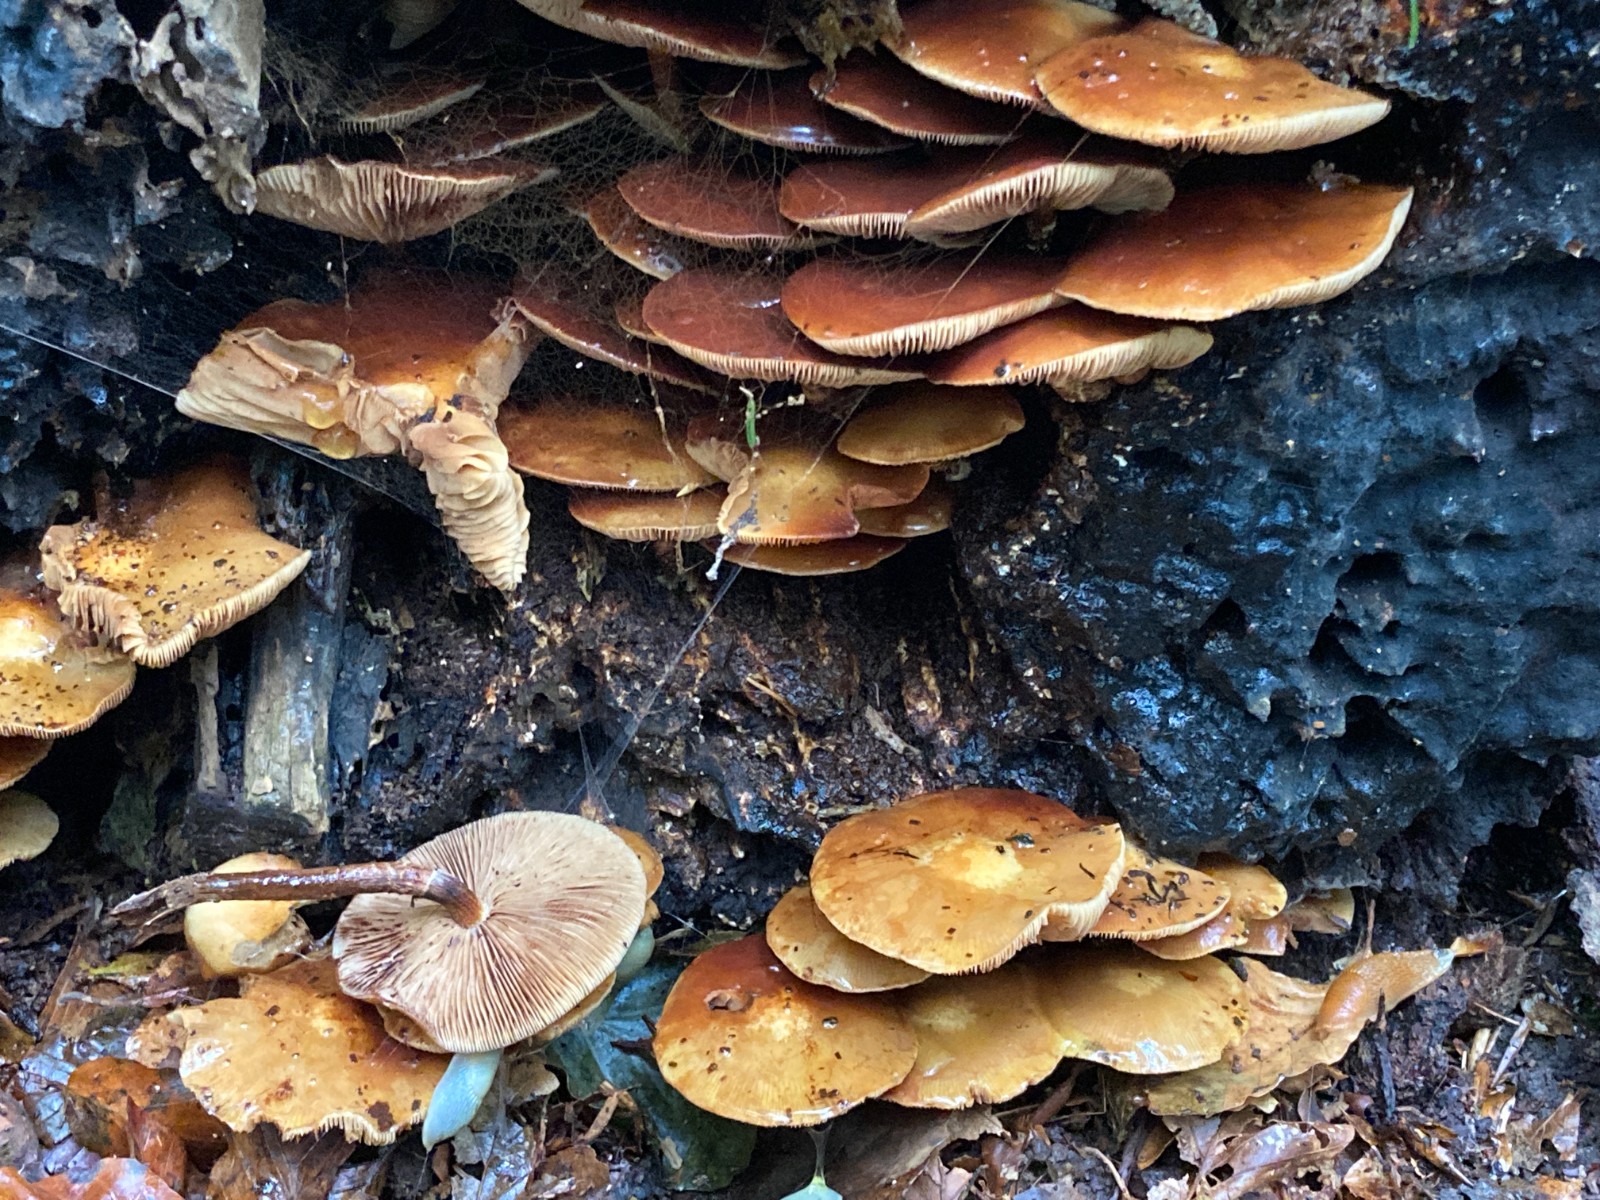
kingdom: Fungi
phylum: Basidiomycota
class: Agaricomycetes
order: Agaricales
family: Strophariaceae
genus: Kuehneromyces
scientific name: Kuehneromyces mutabilis
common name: foranderlig skælhat
